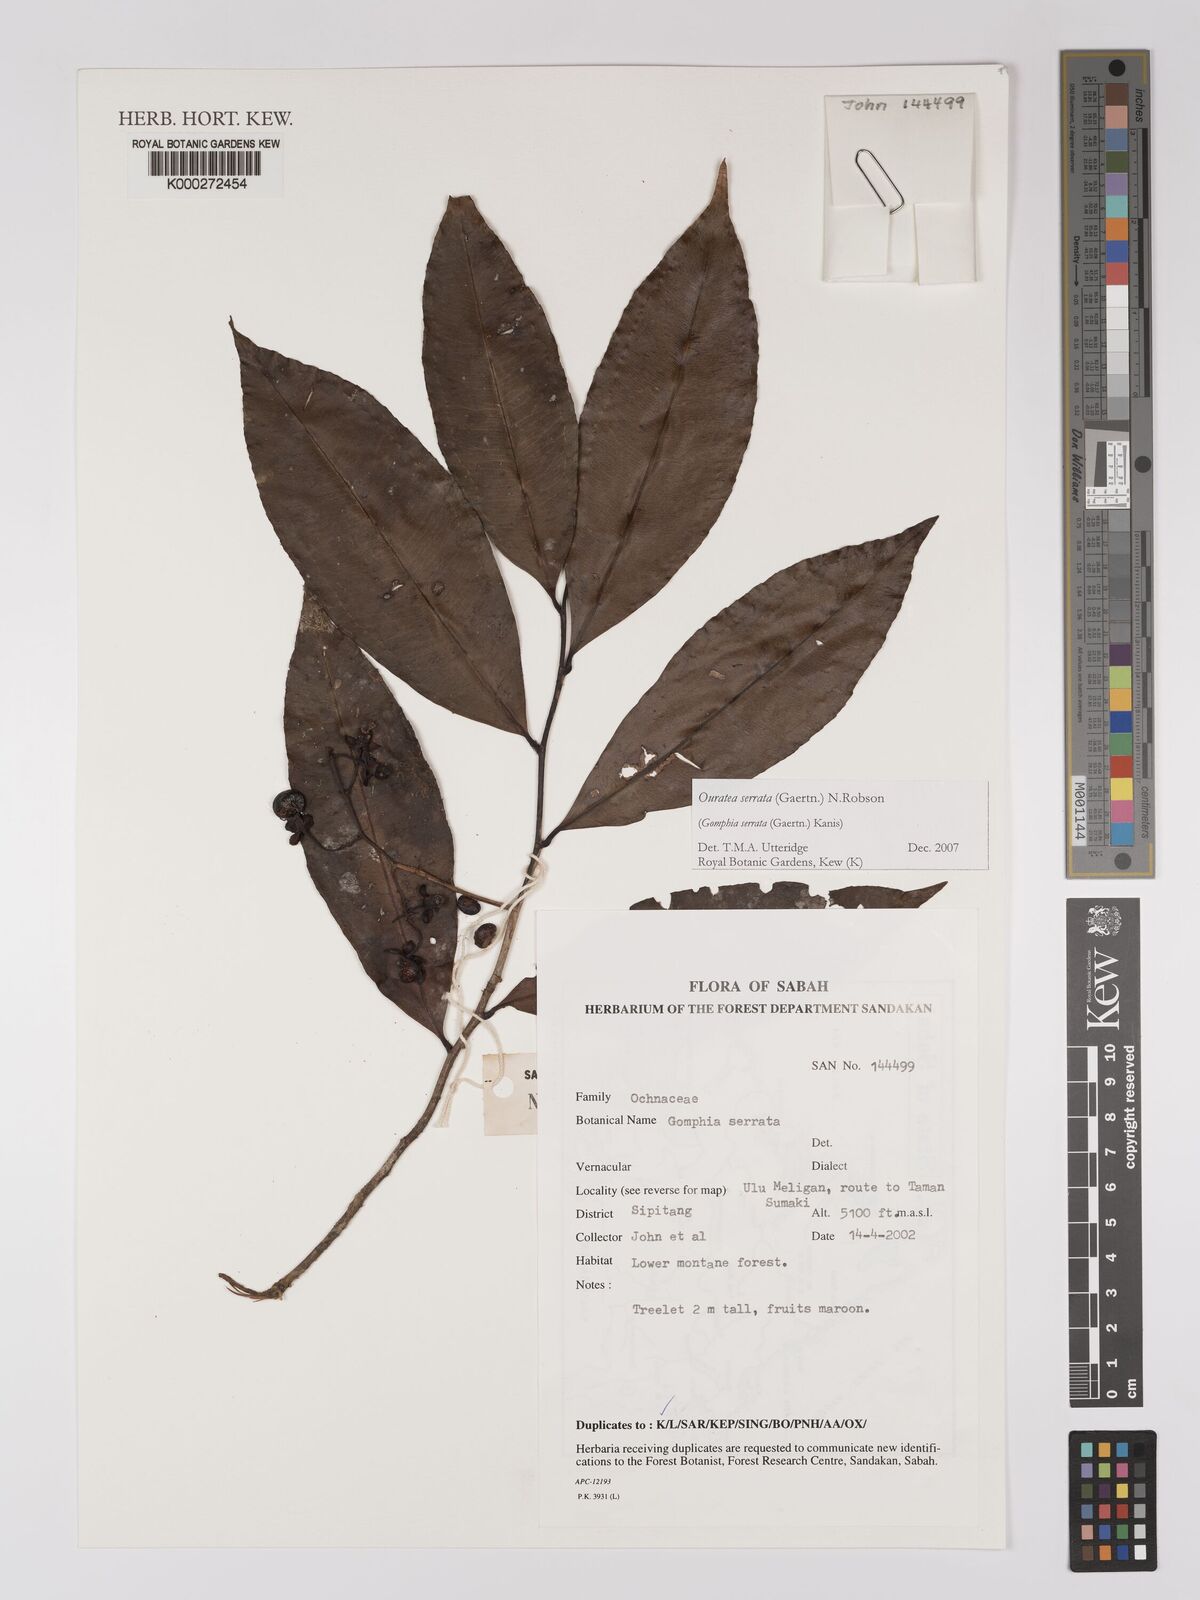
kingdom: Plantae
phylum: Tracheophyta
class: Magnoliopsida
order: Malpighiales
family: Ochnaceae
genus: Gomphia
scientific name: Gomphia serrata
